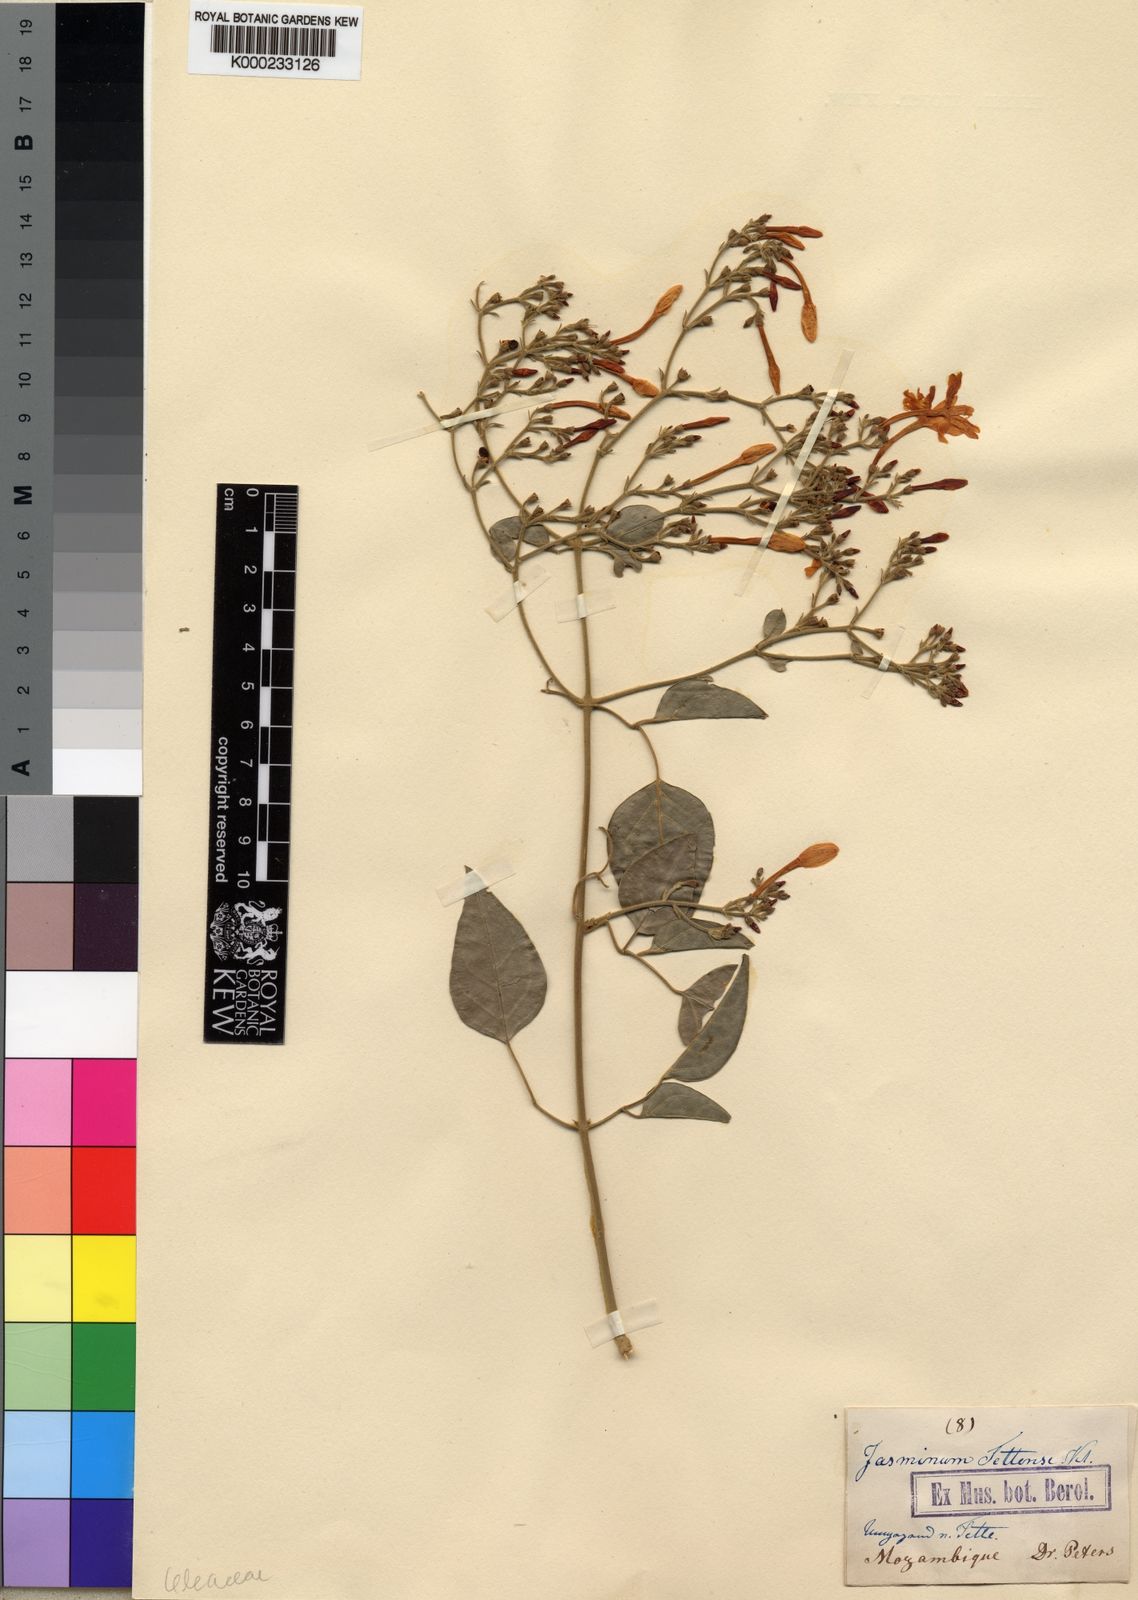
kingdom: Plantae
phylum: Tracheophyta
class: Magnoliopsida
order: Lamiales
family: Oleaceae
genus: Jasminum
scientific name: Jasminum fluminense
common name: Brazilian jasmine
